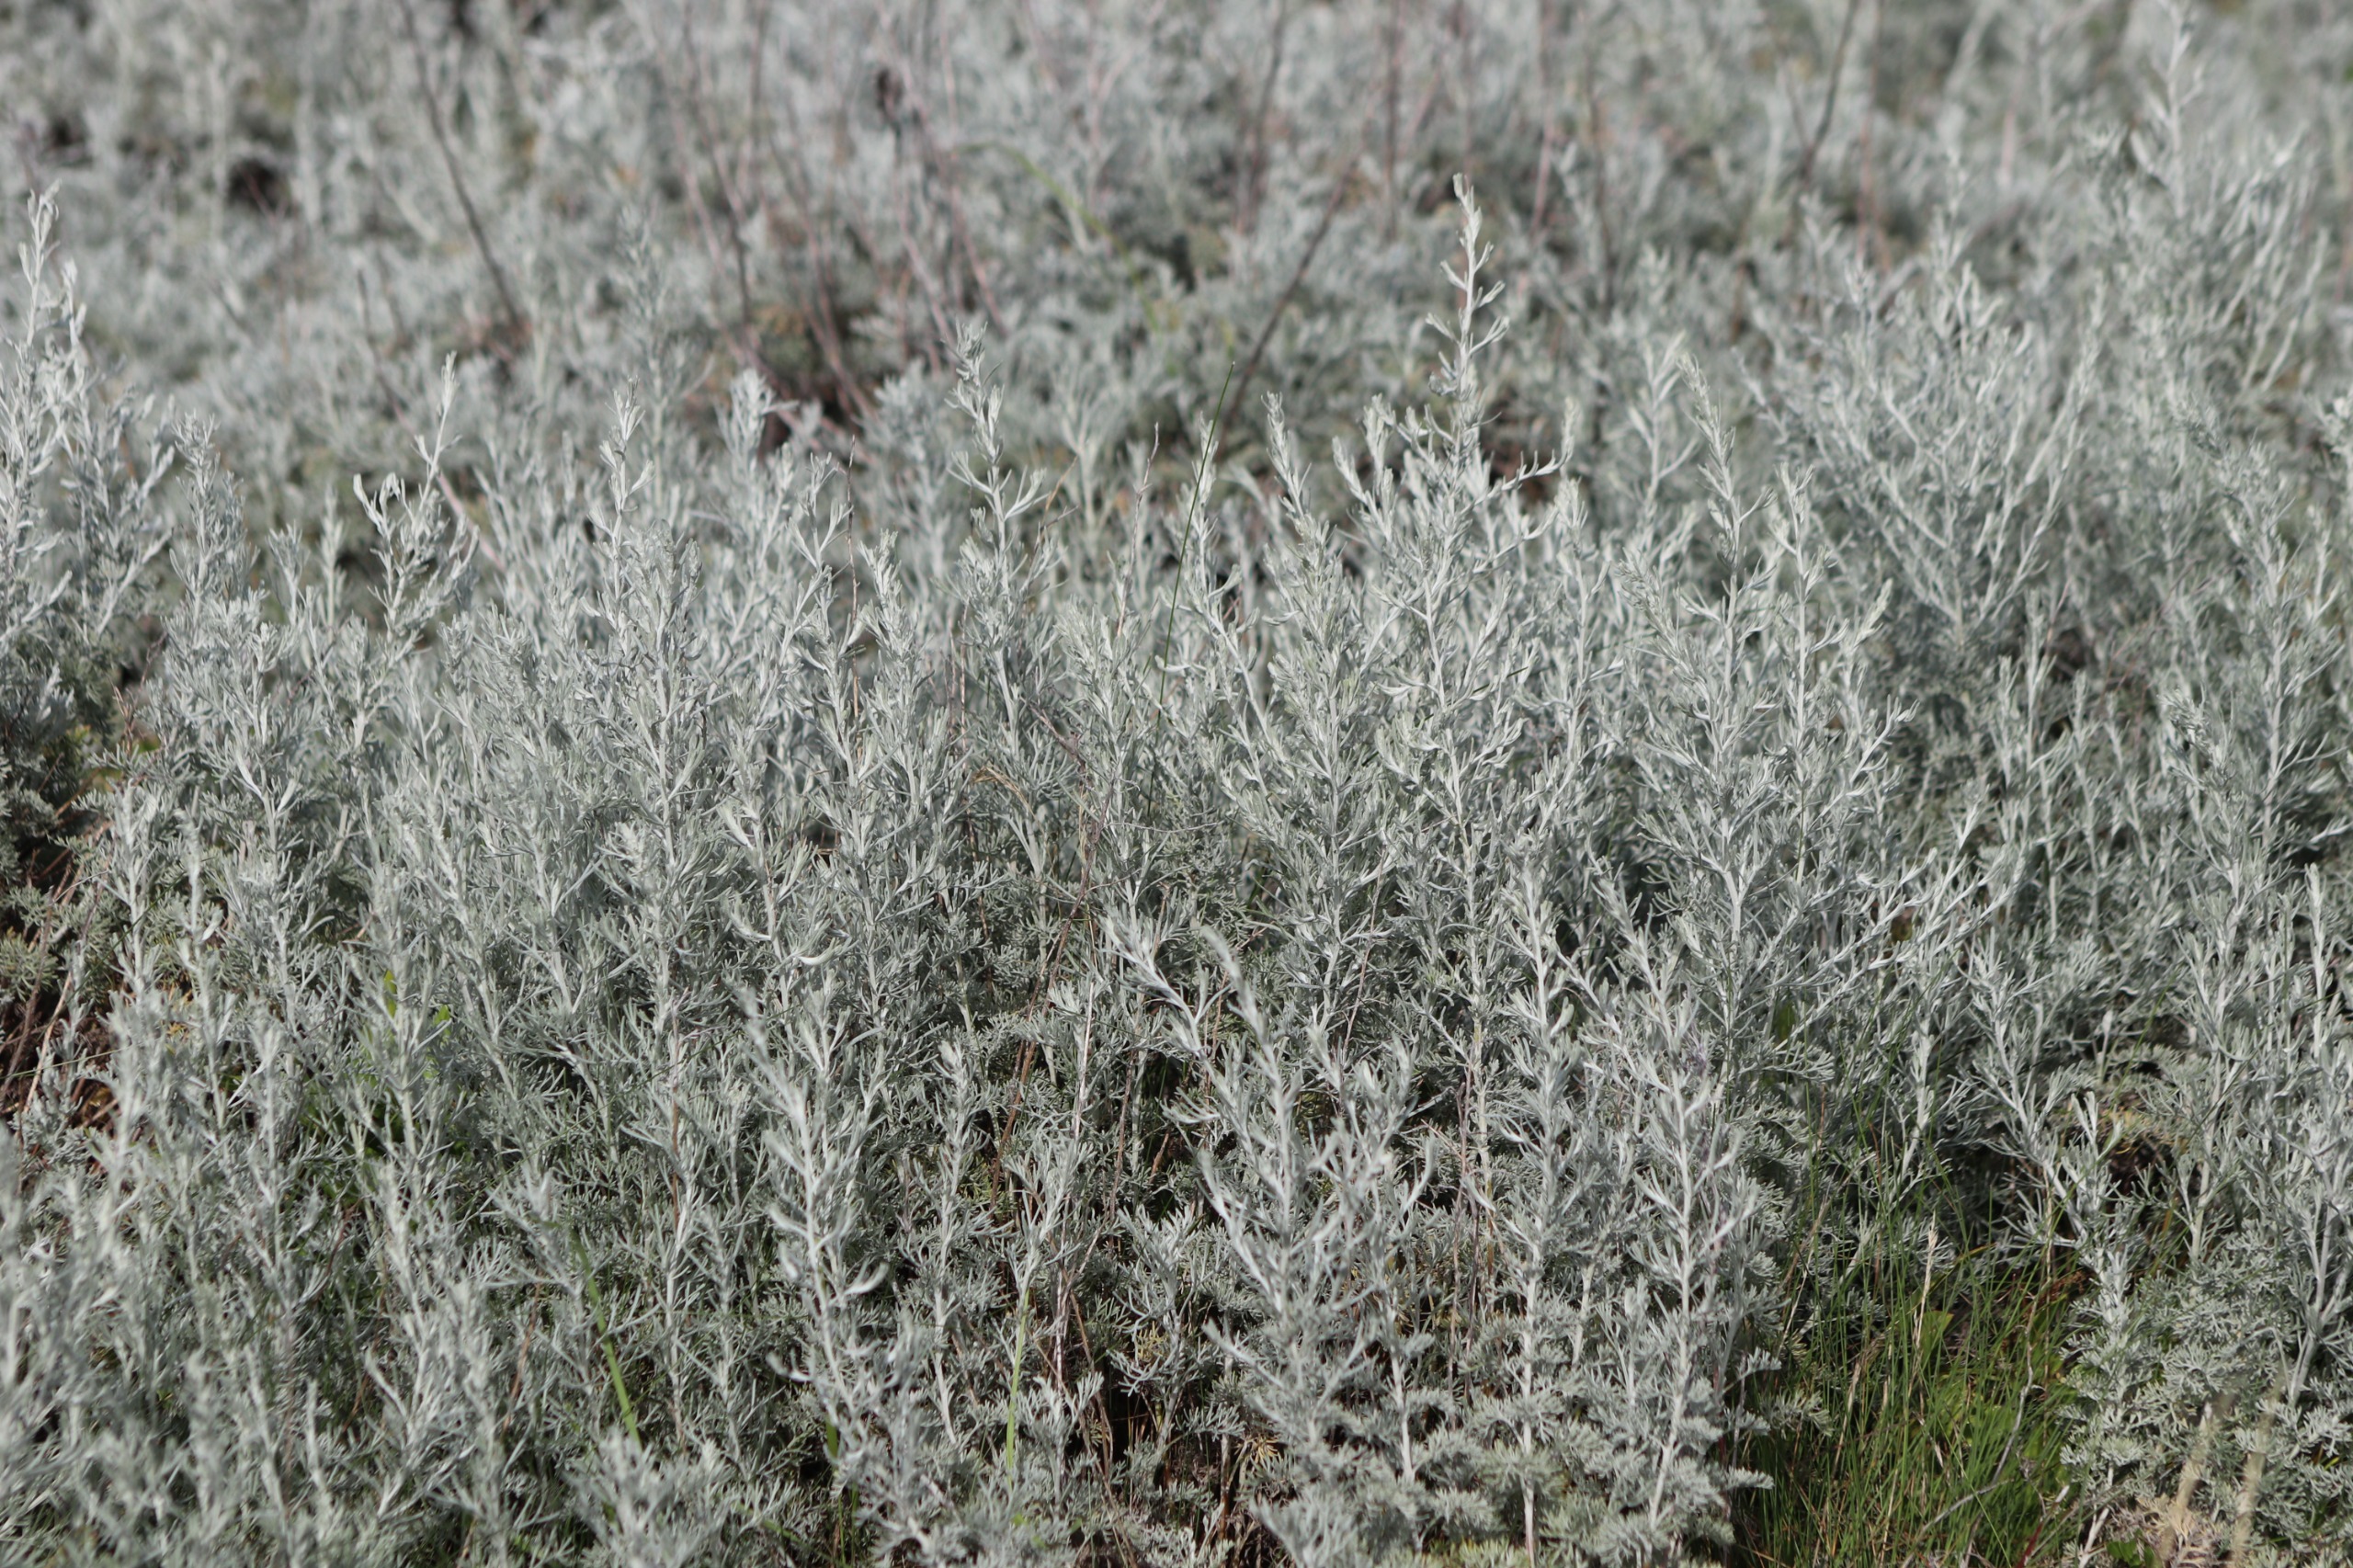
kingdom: Plantae
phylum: Tracheophyta
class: Magnoliopsida
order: Asterales
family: Asteraceae
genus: Artemisia
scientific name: Artemisia maritima
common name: Strandmalurt
